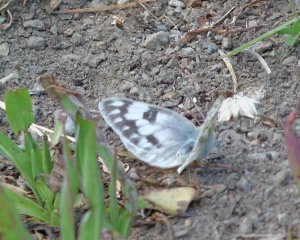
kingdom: Animalia
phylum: Arthropoda
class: Insecta
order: Lepidoptera
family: Pieridae
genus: Pontia
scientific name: Pontia occidentalis
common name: Western White
